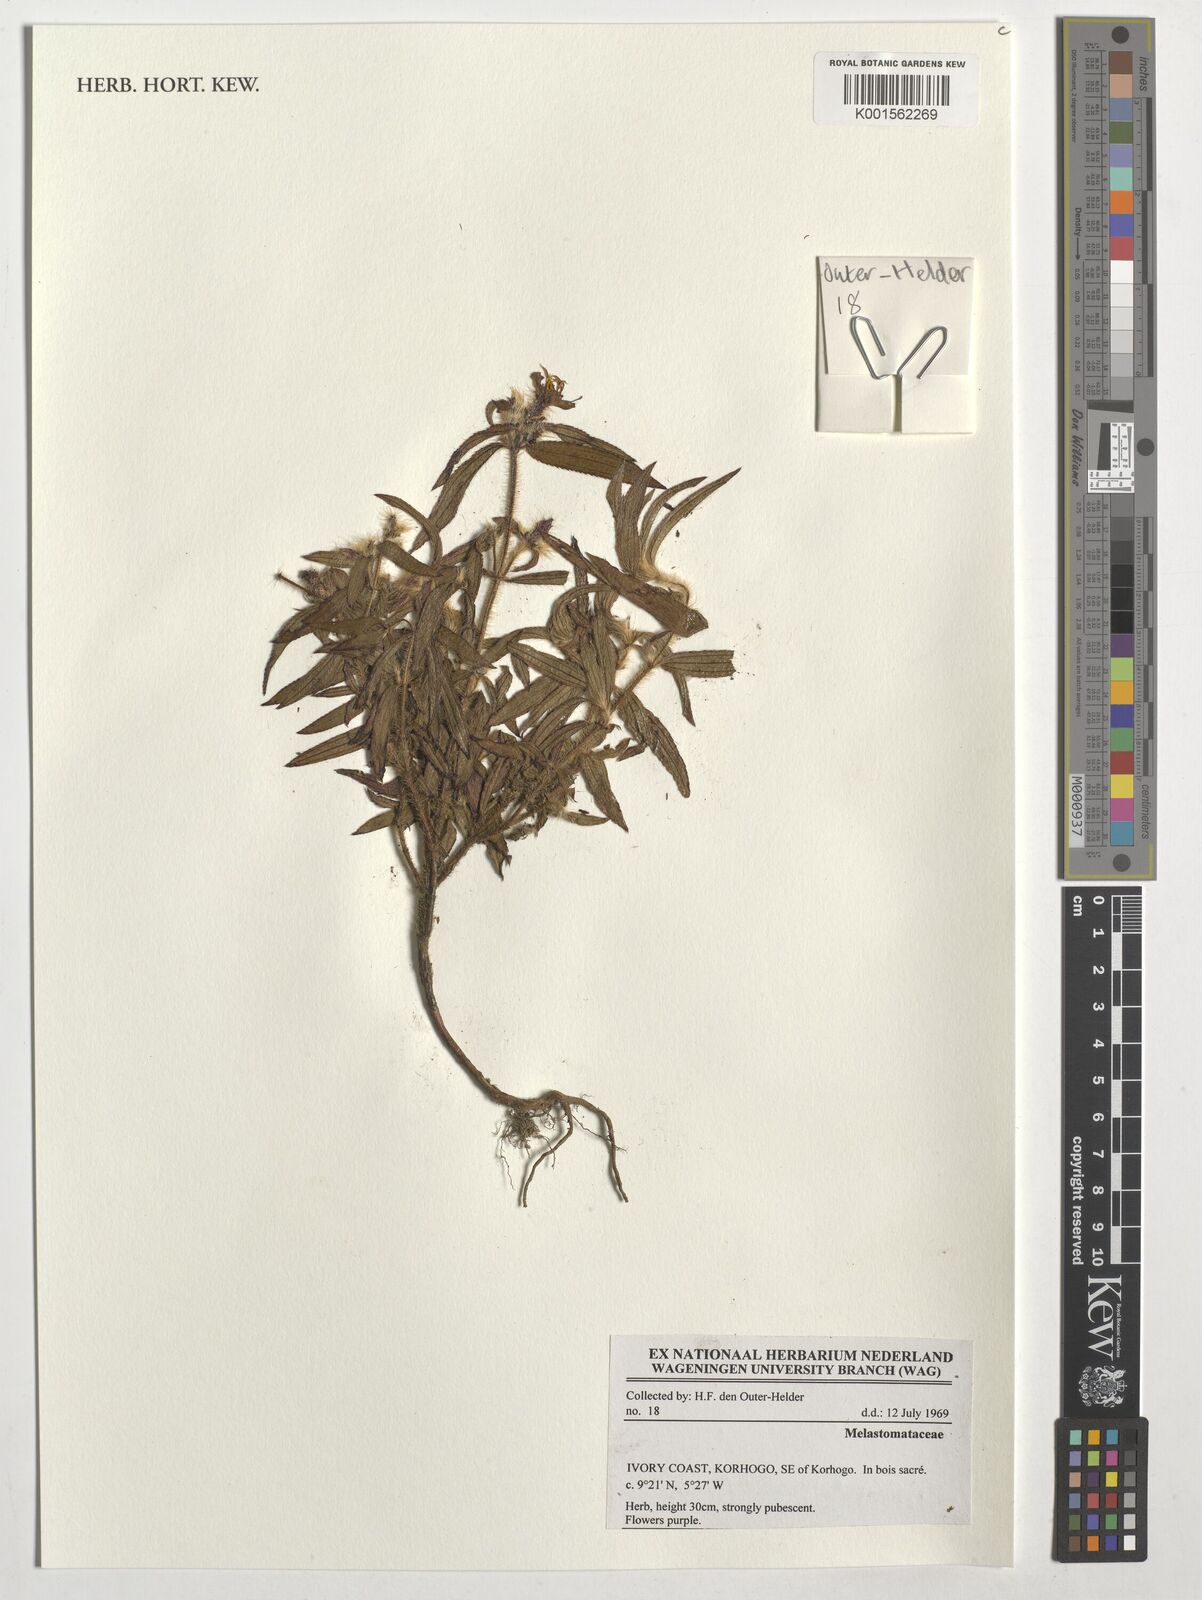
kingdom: Plantae
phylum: Tracheophyta
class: Magnoliopsida
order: Myrtales
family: Melastomataceae
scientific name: Melastomataceae
